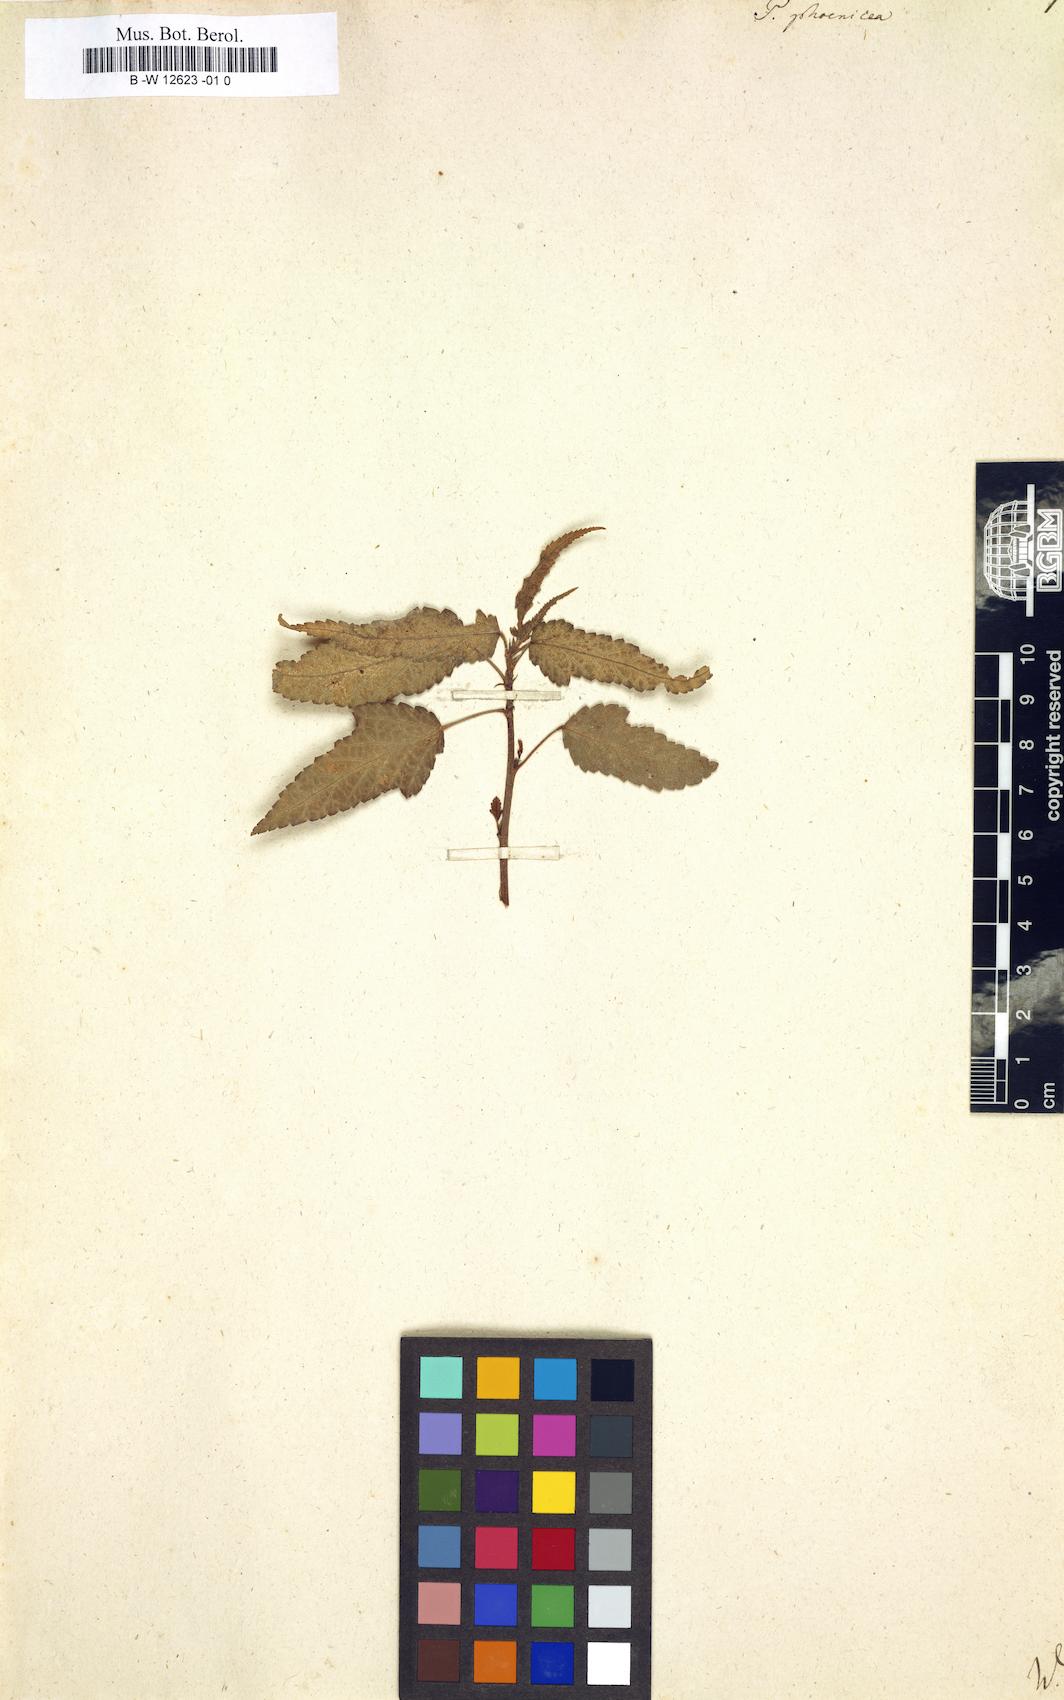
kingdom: Plantae
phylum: Tracheophyta
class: Magnoliopsida
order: Malvales
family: Malvaceae
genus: Pentapetes
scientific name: Pentapetes phoenicea
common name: Copper-cups
